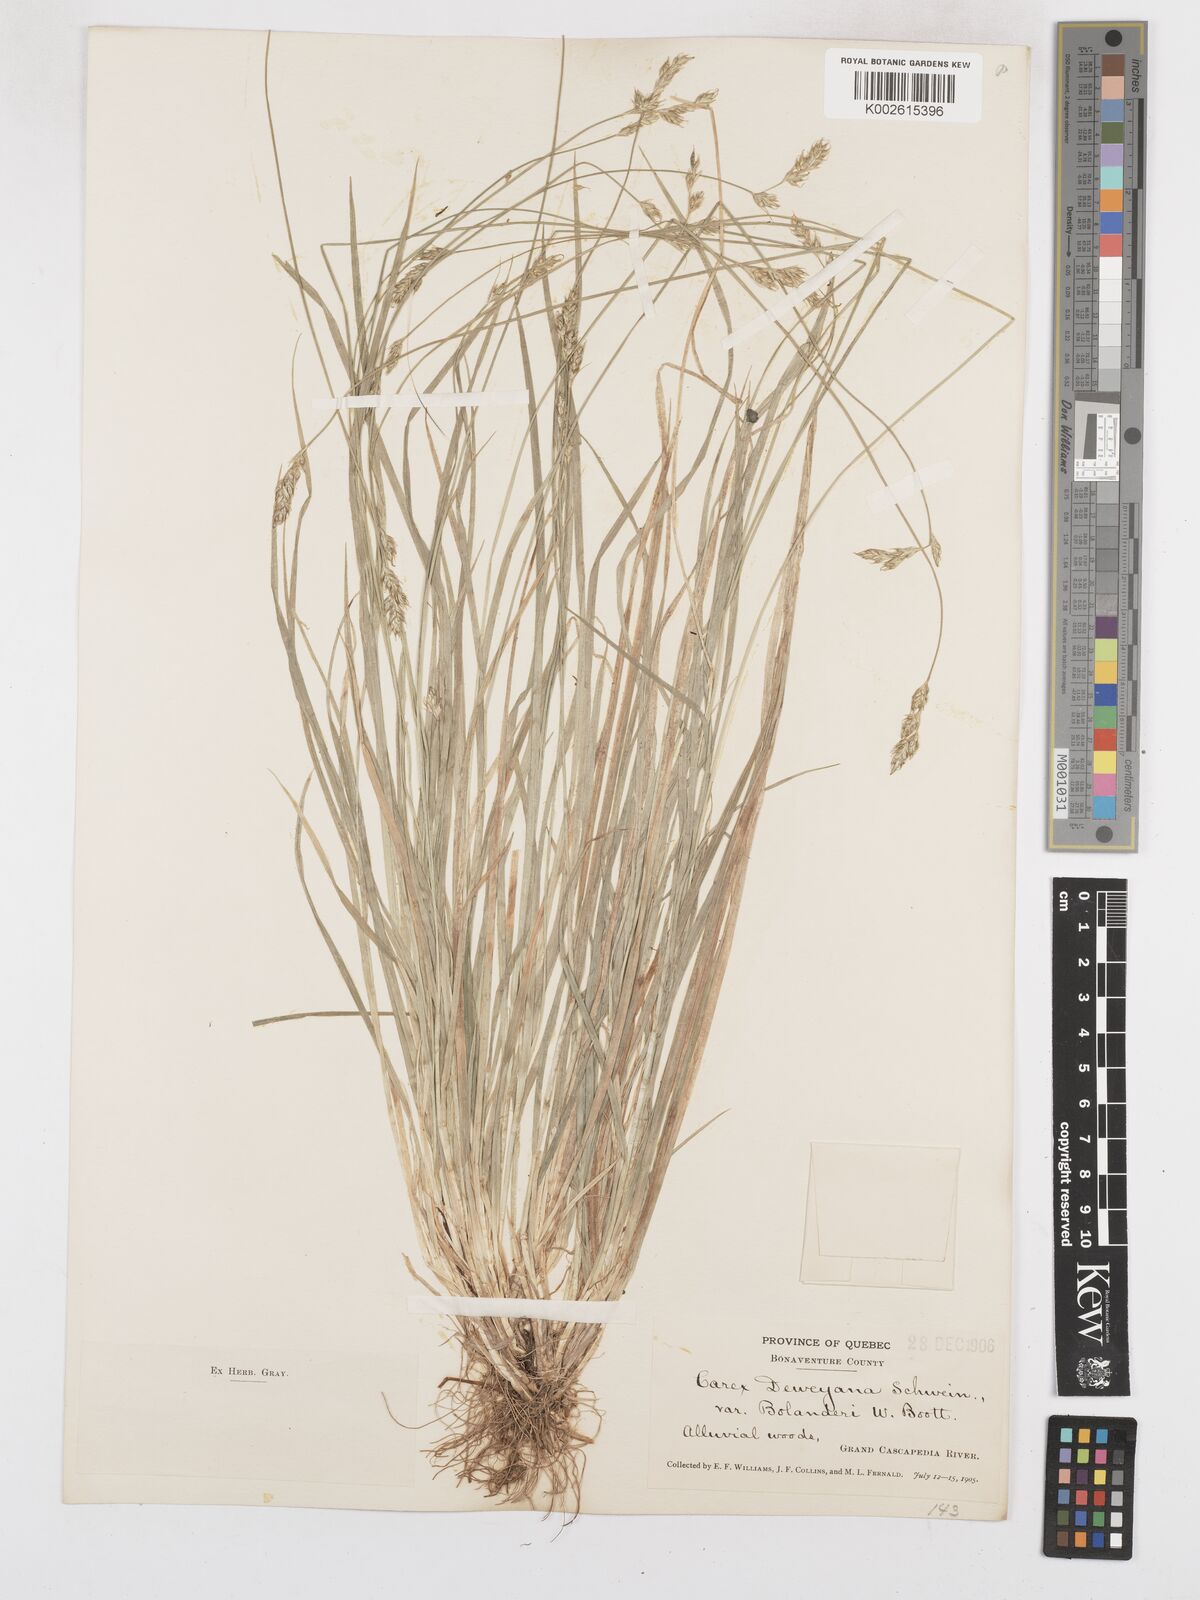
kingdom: Plantae
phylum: Tracheophyta
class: Liliopsida
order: Poales
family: Cyperaceae
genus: Carex
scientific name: Carex bolanderi
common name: Bolander's sedge
